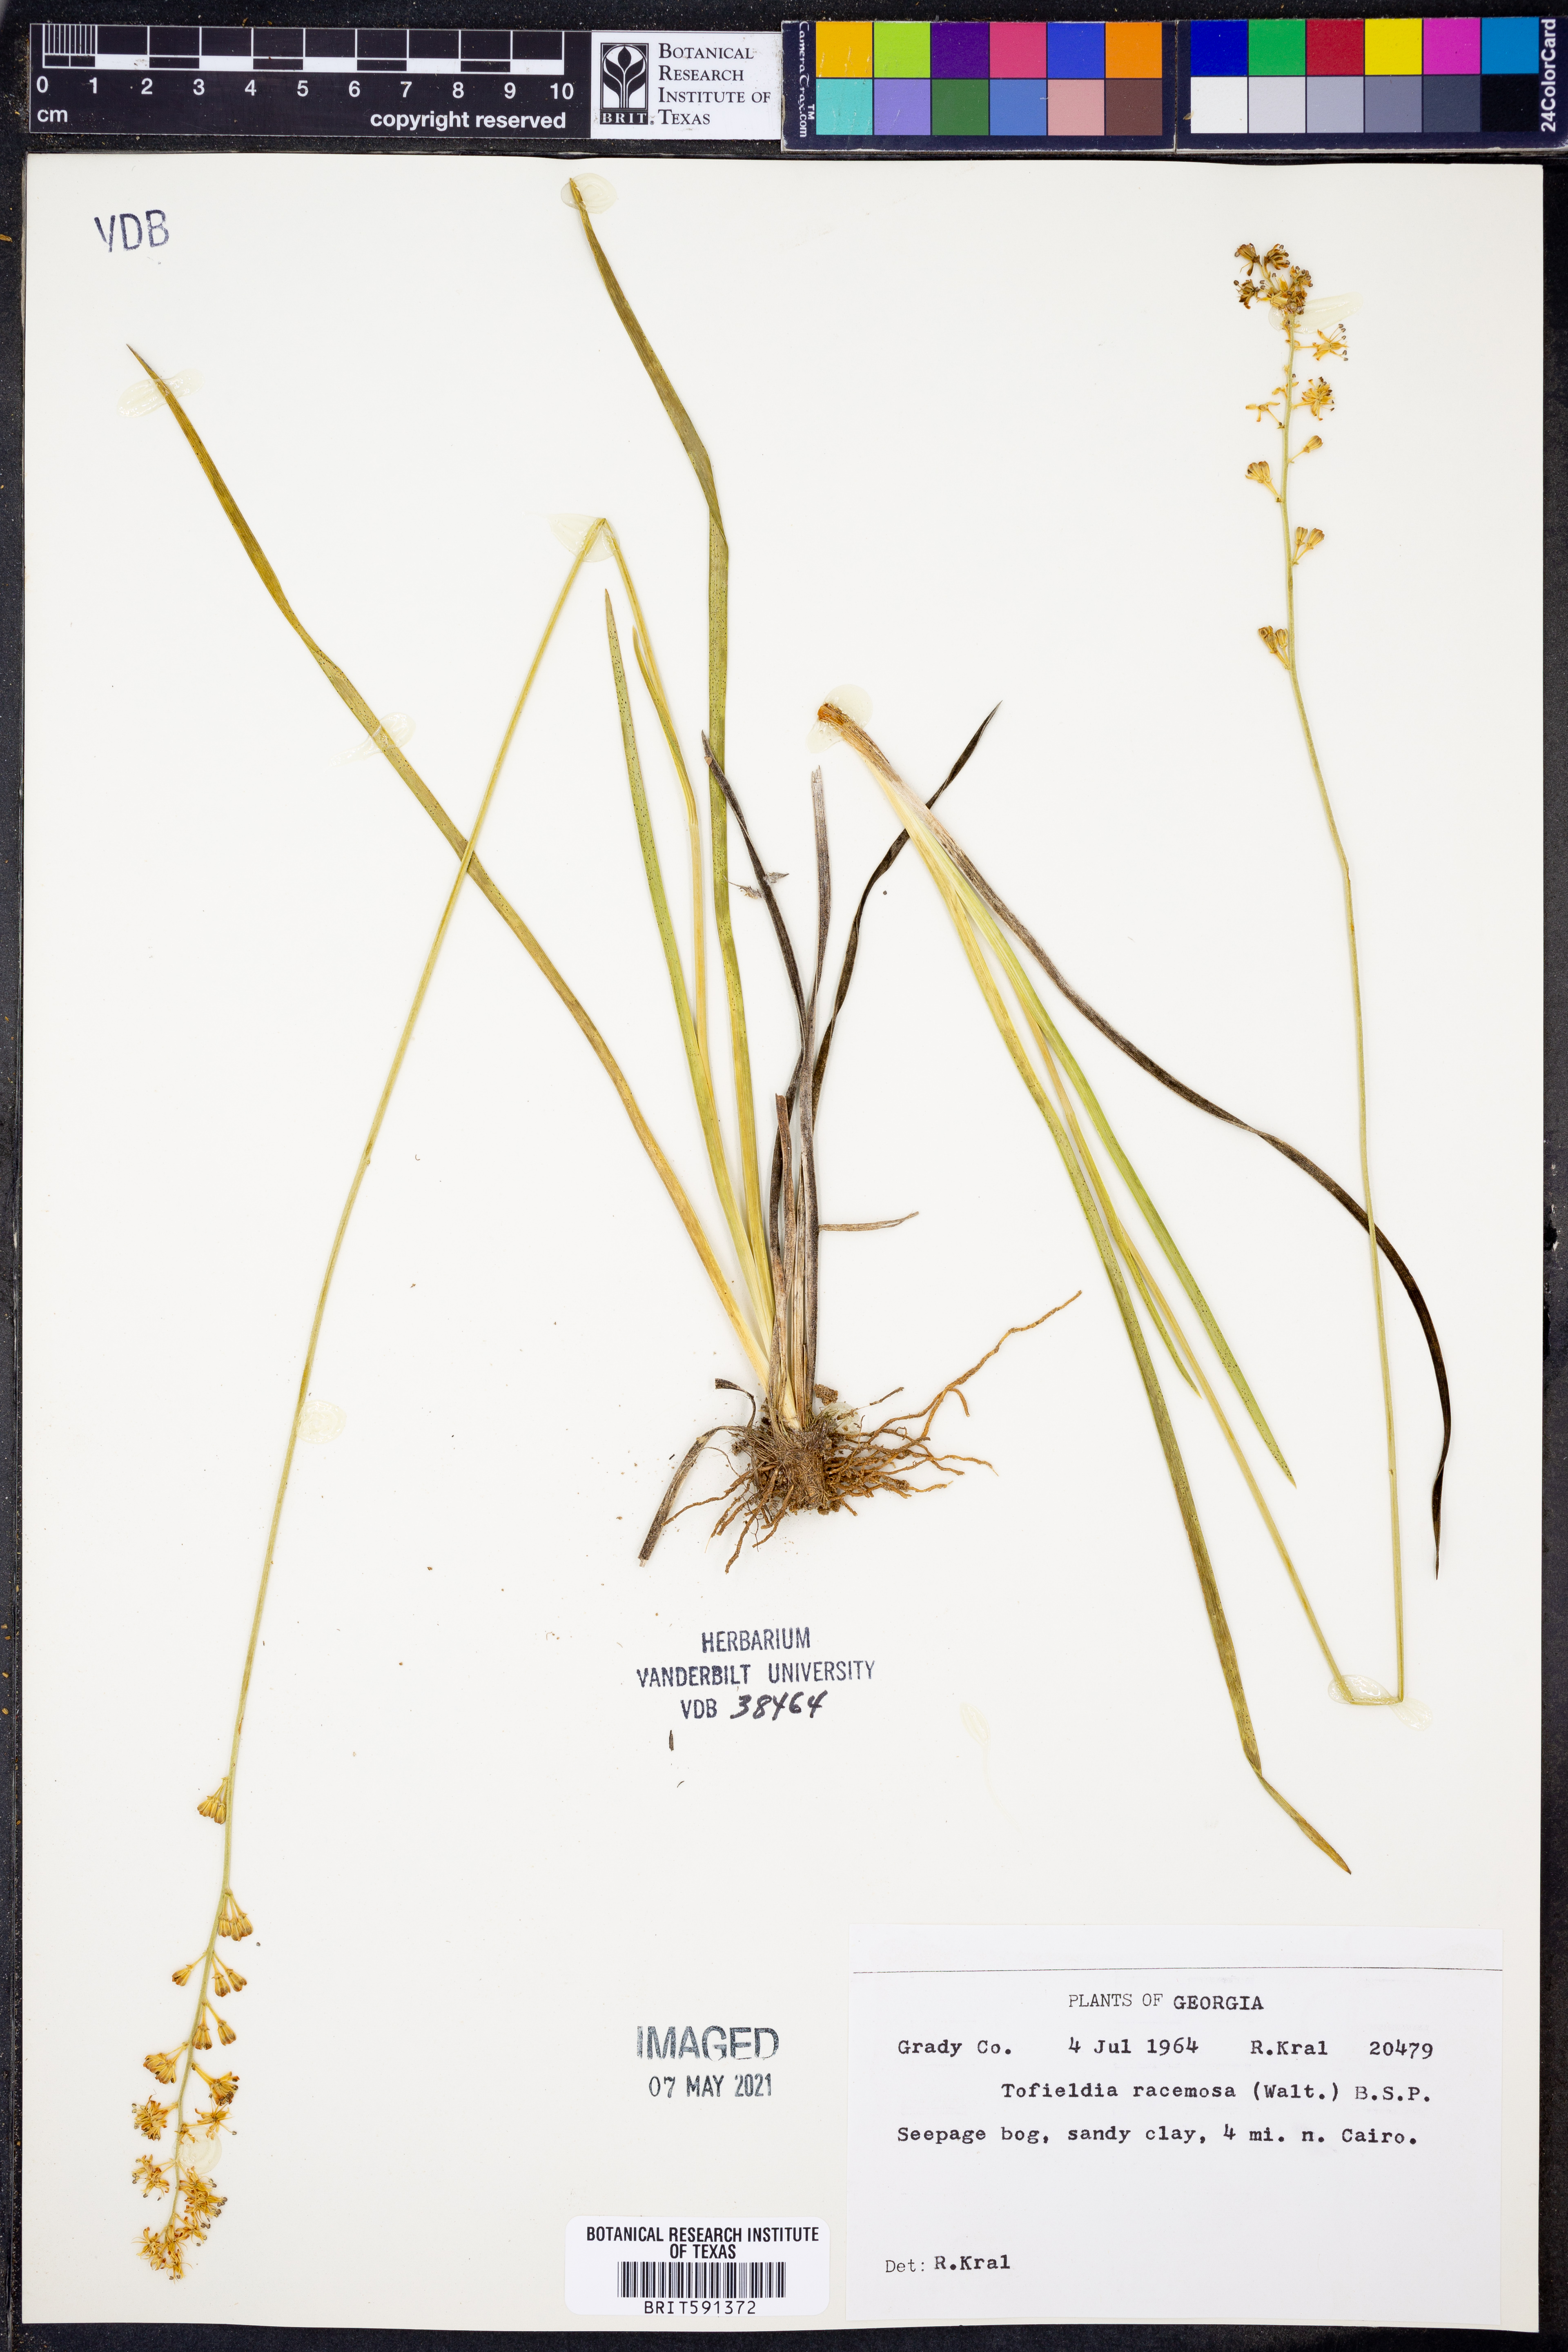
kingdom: Plantae
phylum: Tracheophyta
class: Liliopsida
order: Alismatales
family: Tofieldiaceae
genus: Triantha
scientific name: Triantha racemosa
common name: Coastal false asphodel
